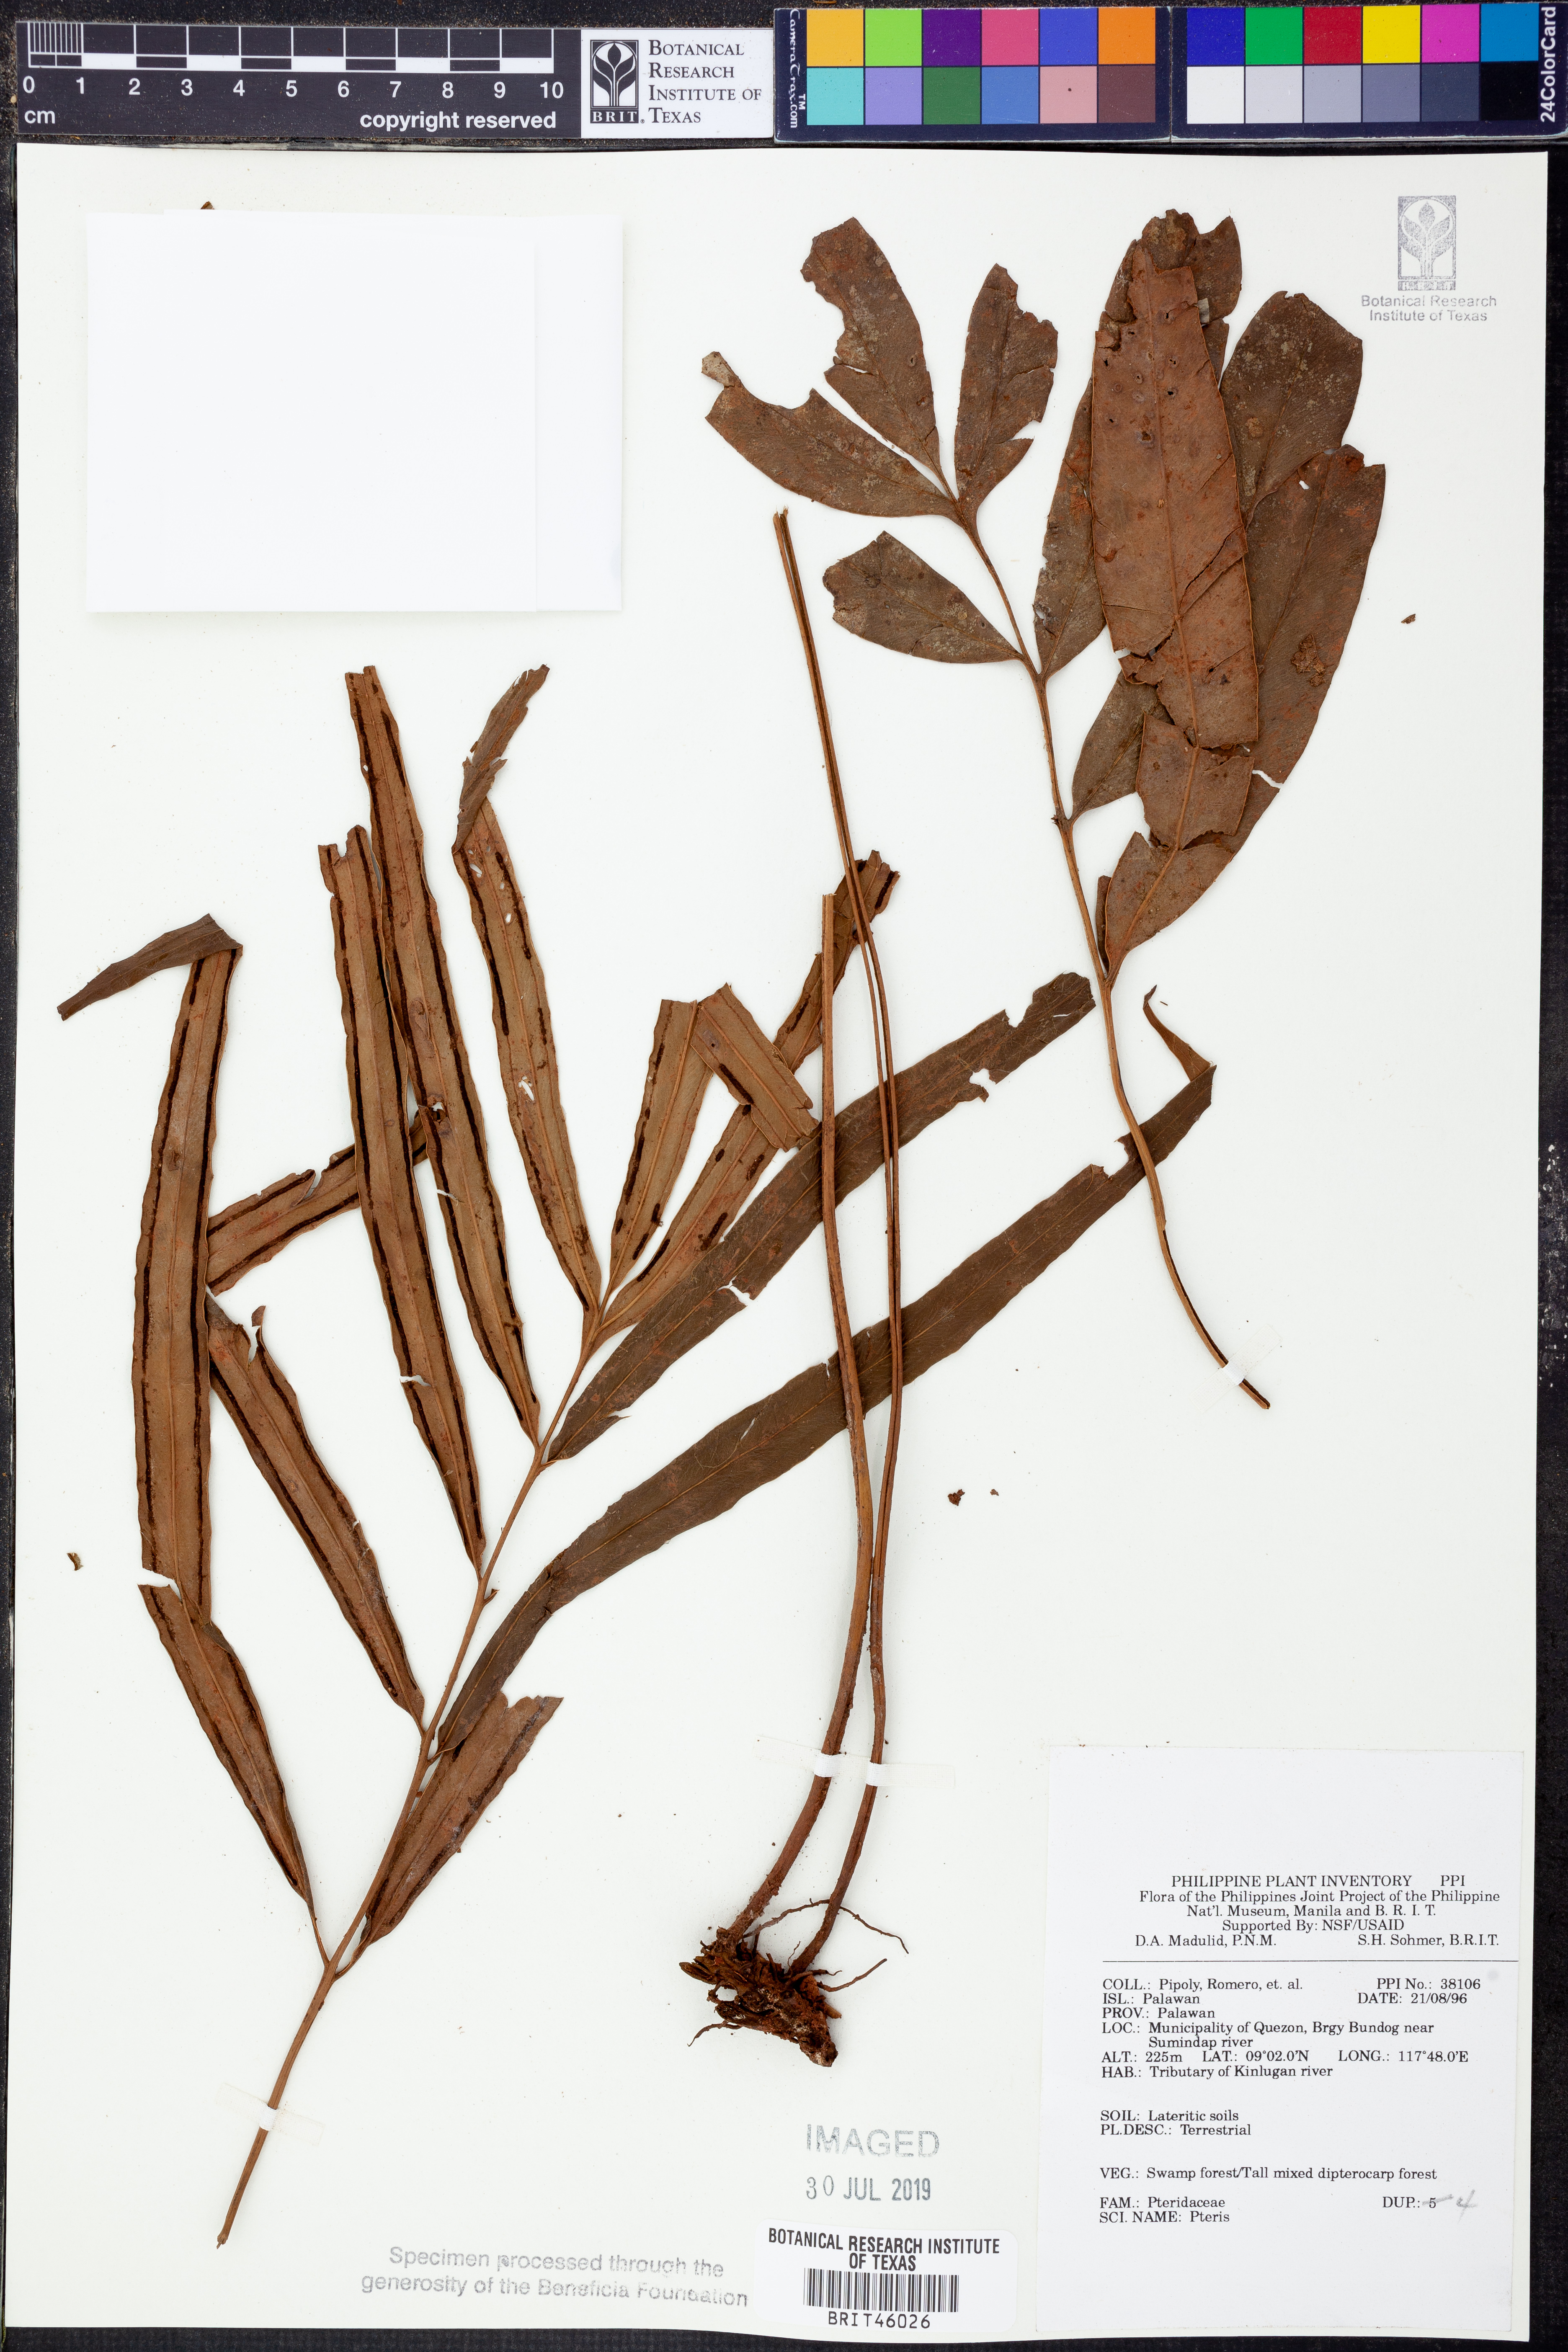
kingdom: Plantae
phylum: Tracheophyta
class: Polypodiopsida
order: Polypodiales
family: Pteridaceae
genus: Pteris
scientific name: Pteris
